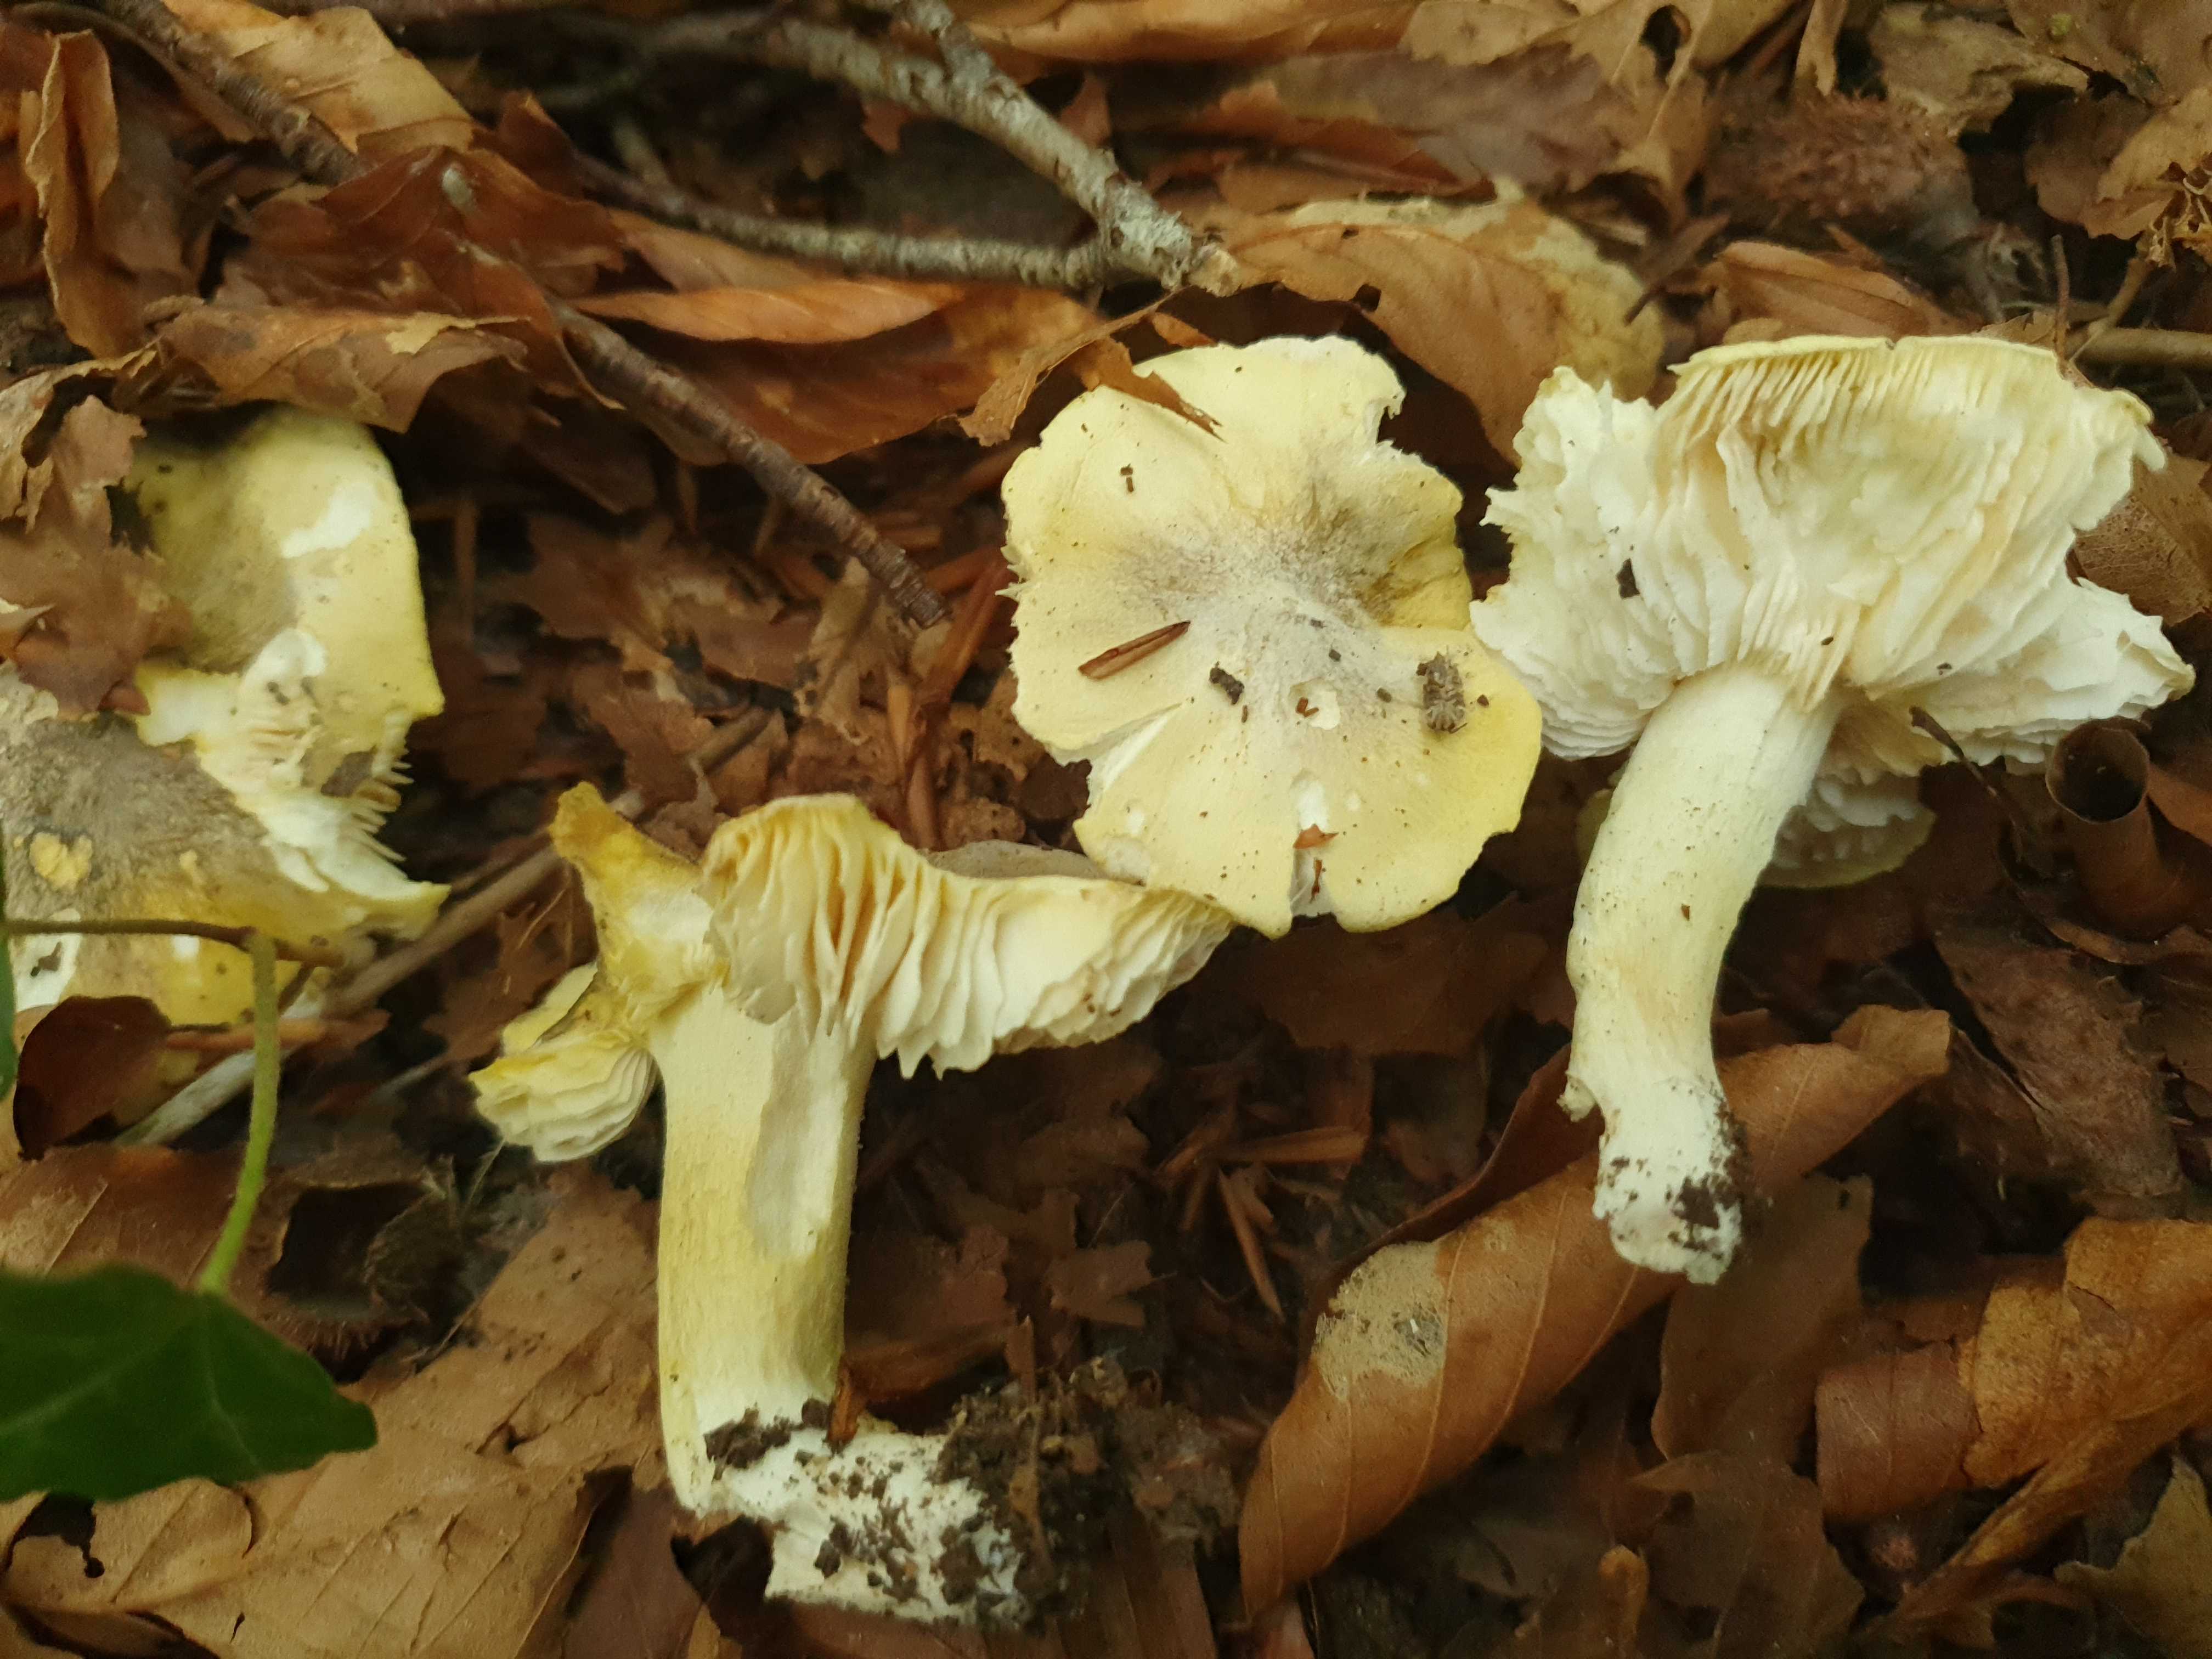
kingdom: Fungi
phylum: Basidiomycota
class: Agaricomycetes
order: Agaricales
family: Tricholomataceae
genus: Tricholoma
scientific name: Tricholoma sejunctum
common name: grøngul ridderhat
